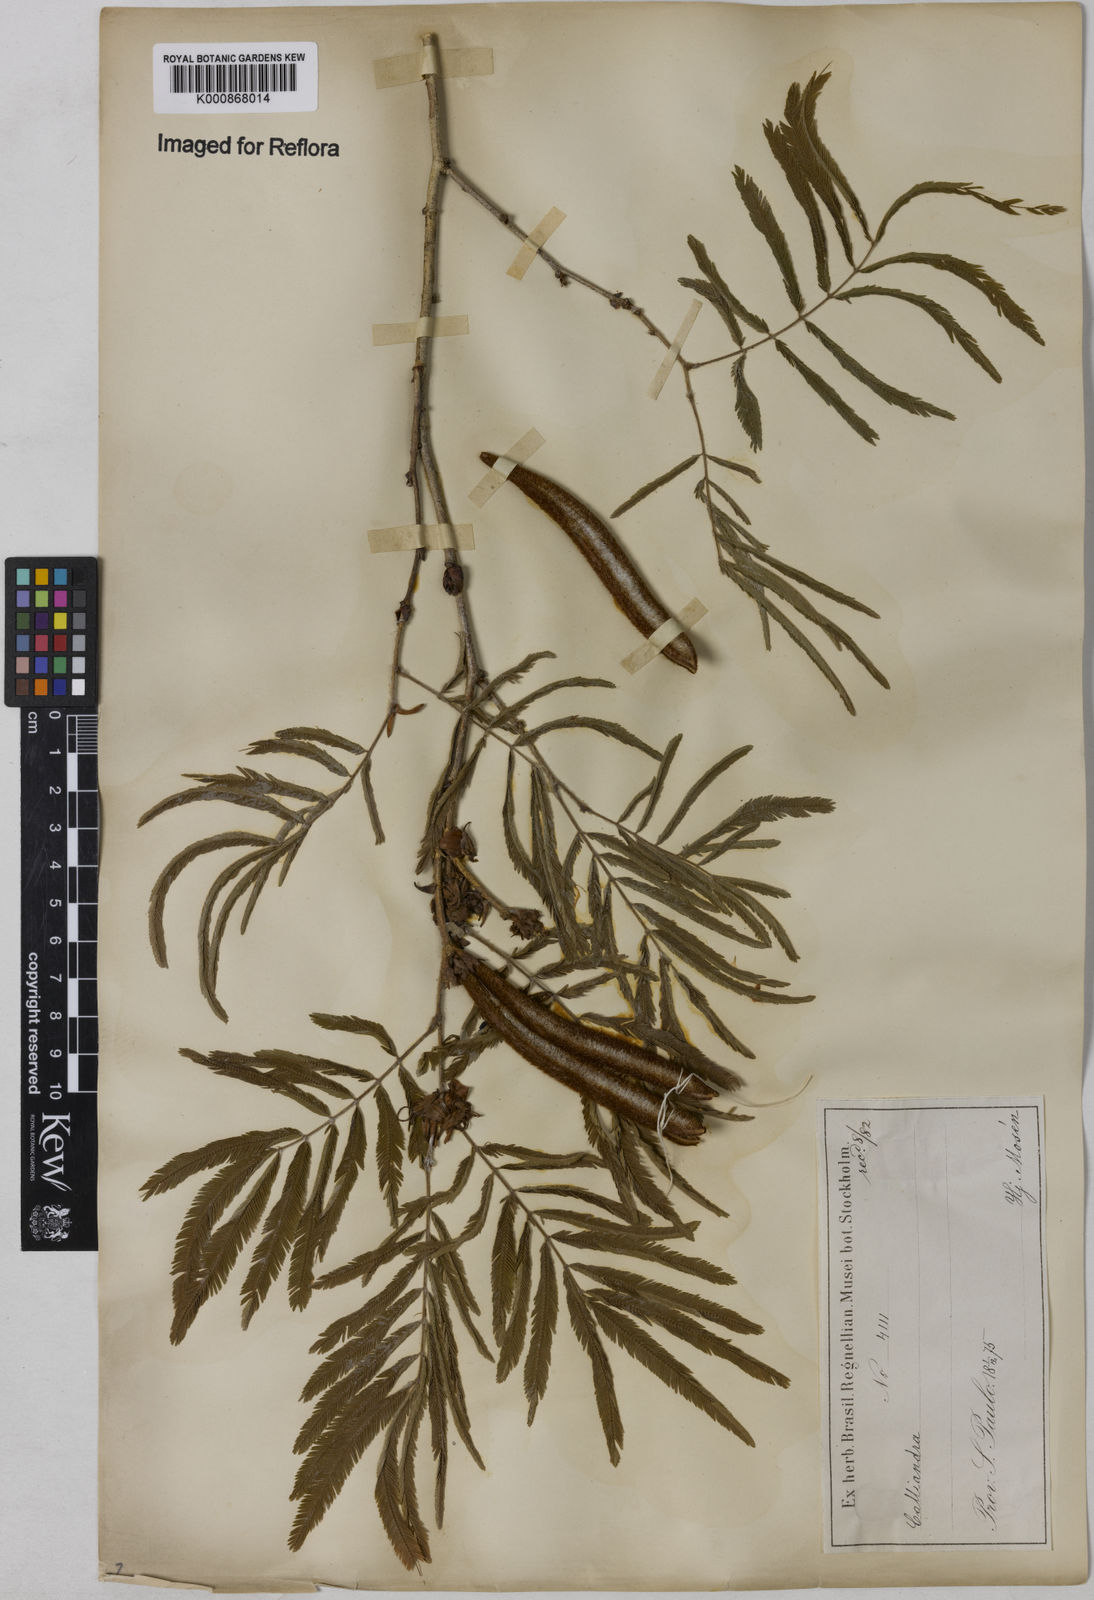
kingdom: Plantae
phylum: Tracheophyta
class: Magnoliopsida
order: Fabales
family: Fabaceae
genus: Calliandra
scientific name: Calliandra foliolosa
